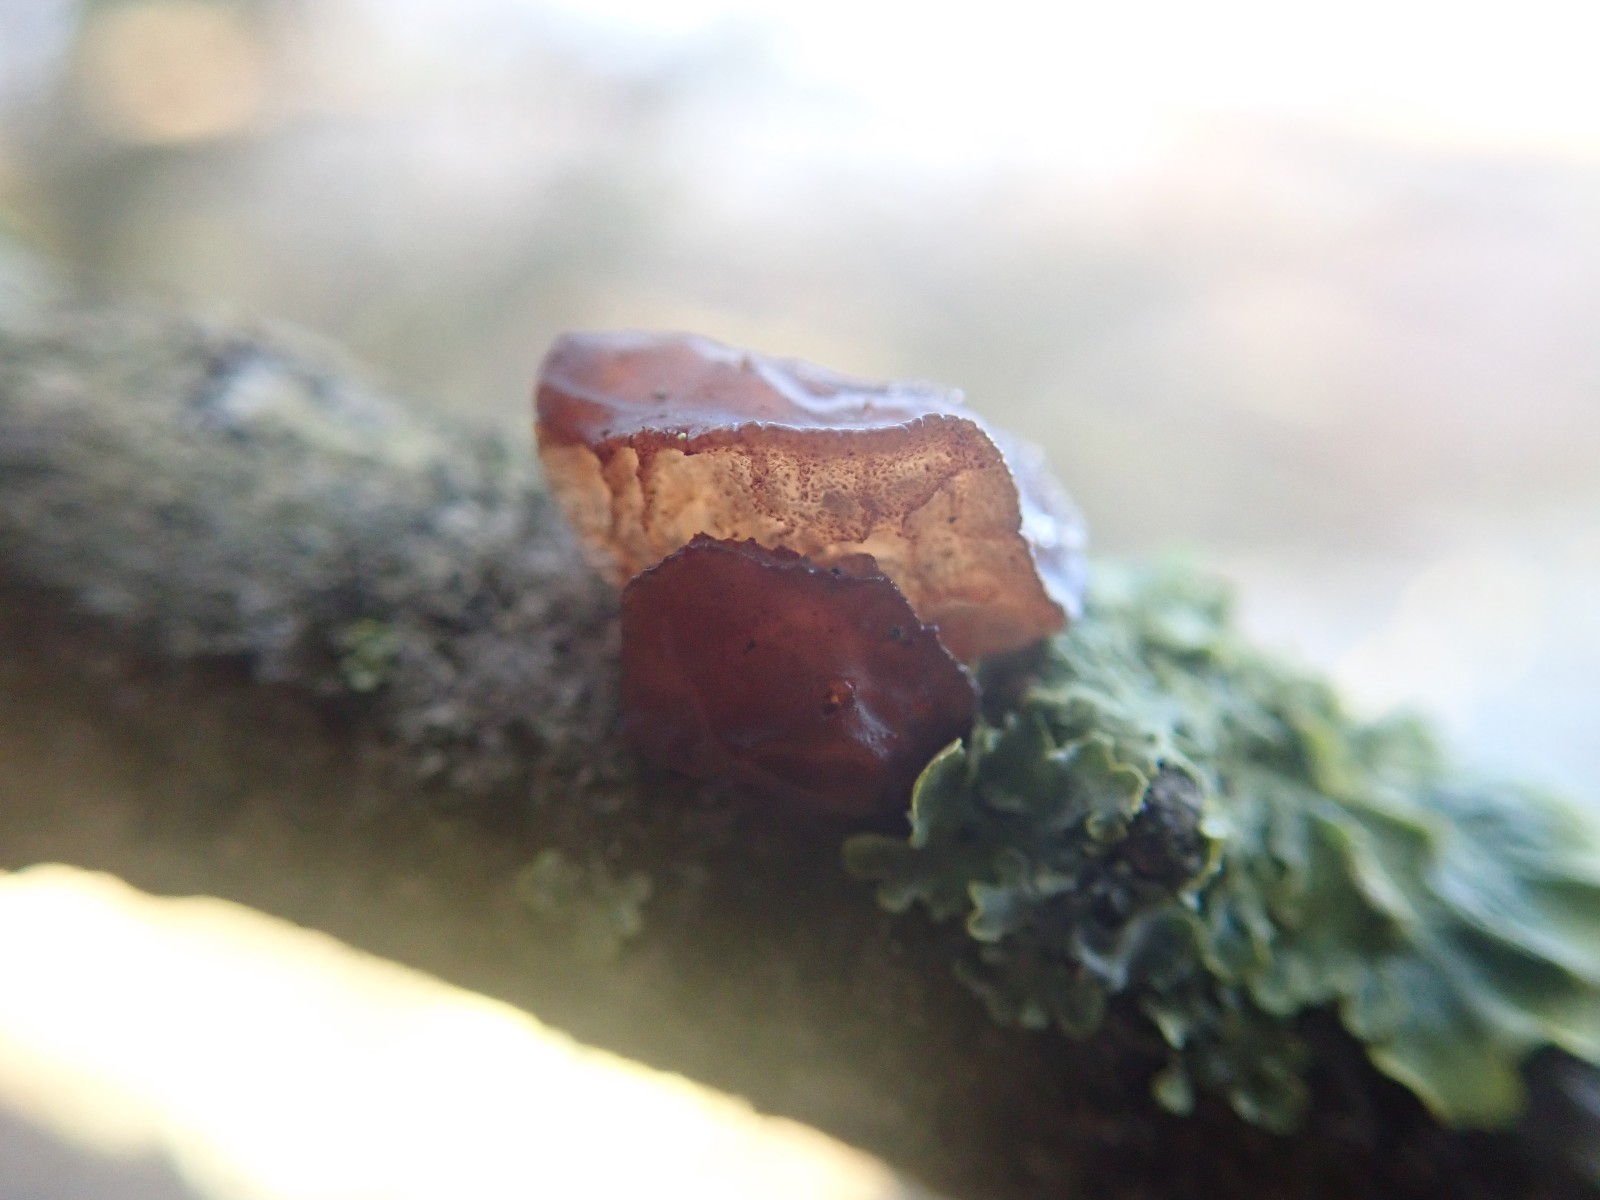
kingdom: Fungi
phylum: Basidiomycota
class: Agaricomycetes
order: Auriculariales
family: Auriculariaceae
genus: Exidia
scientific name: Exidia recisa
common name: pile-bævretop
